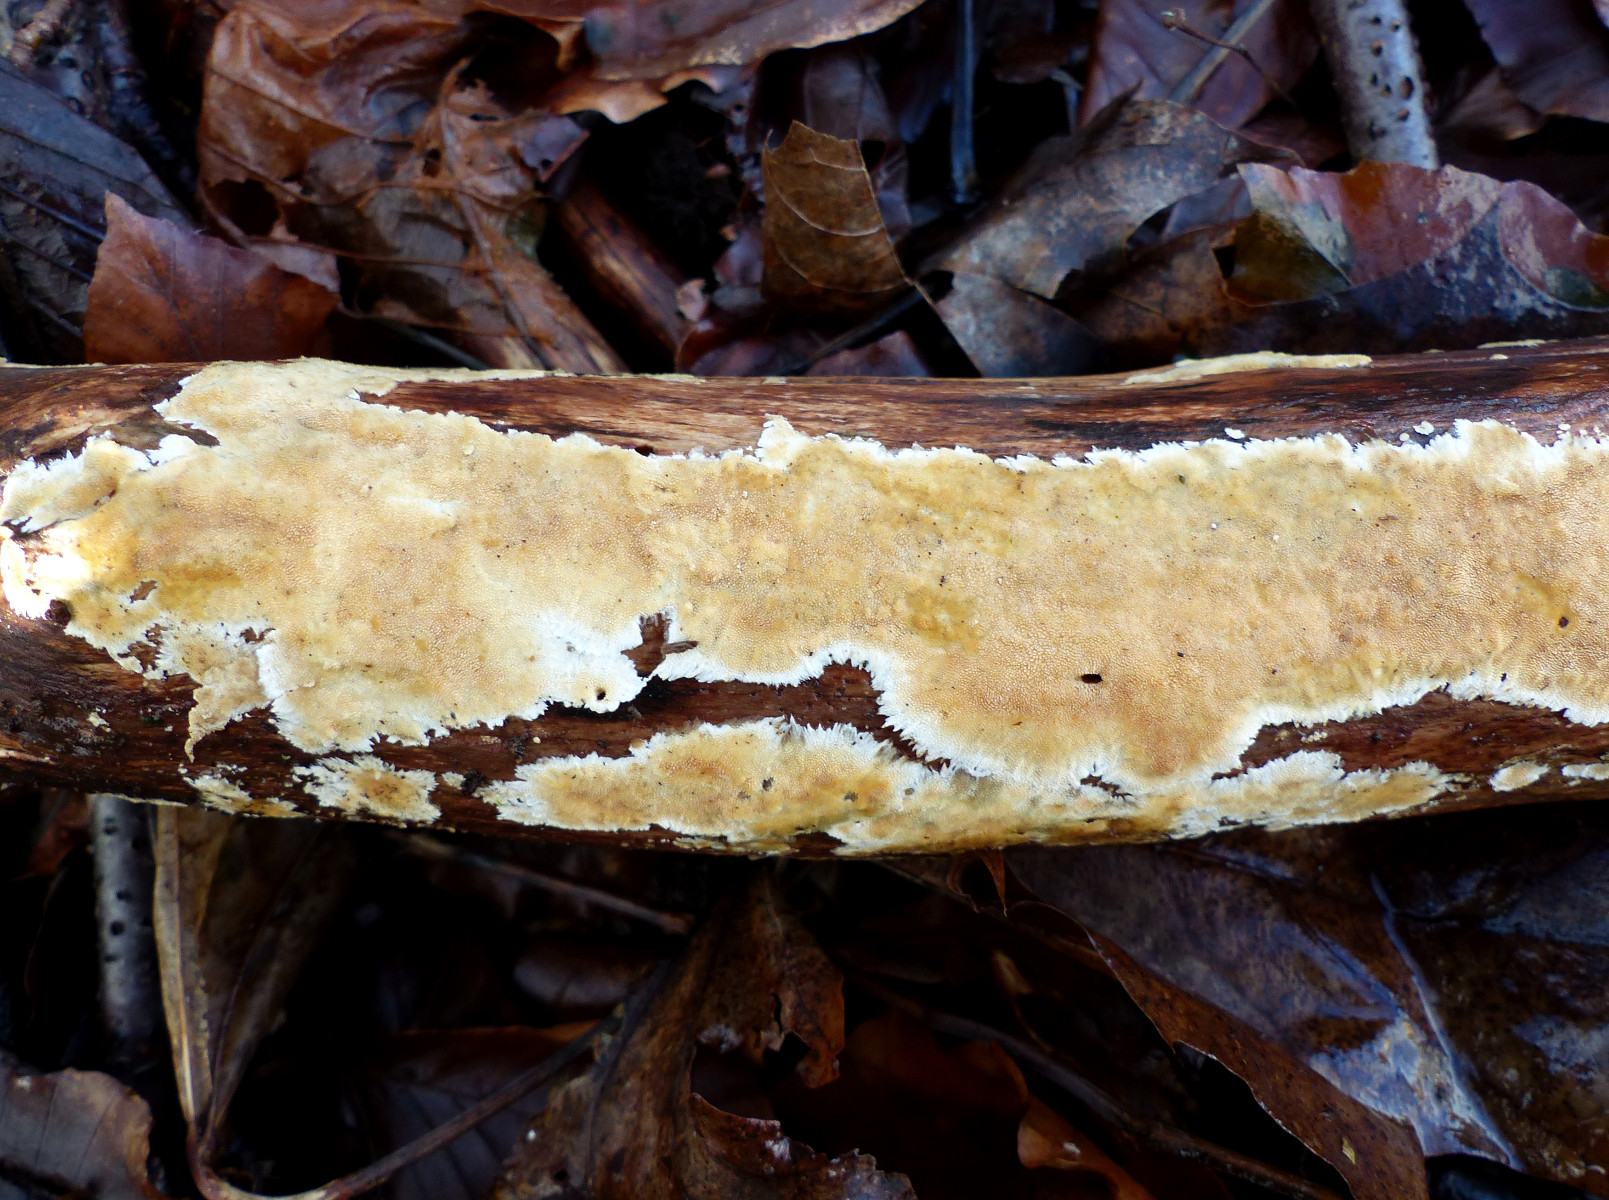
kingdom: Fungi
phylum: Basidiomycota
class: Agaricomycetes
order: Polyporales
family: Steccherinaceae
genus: Steccherinum
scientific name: Steccherinum ochraceum
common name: almindelig skønpig
